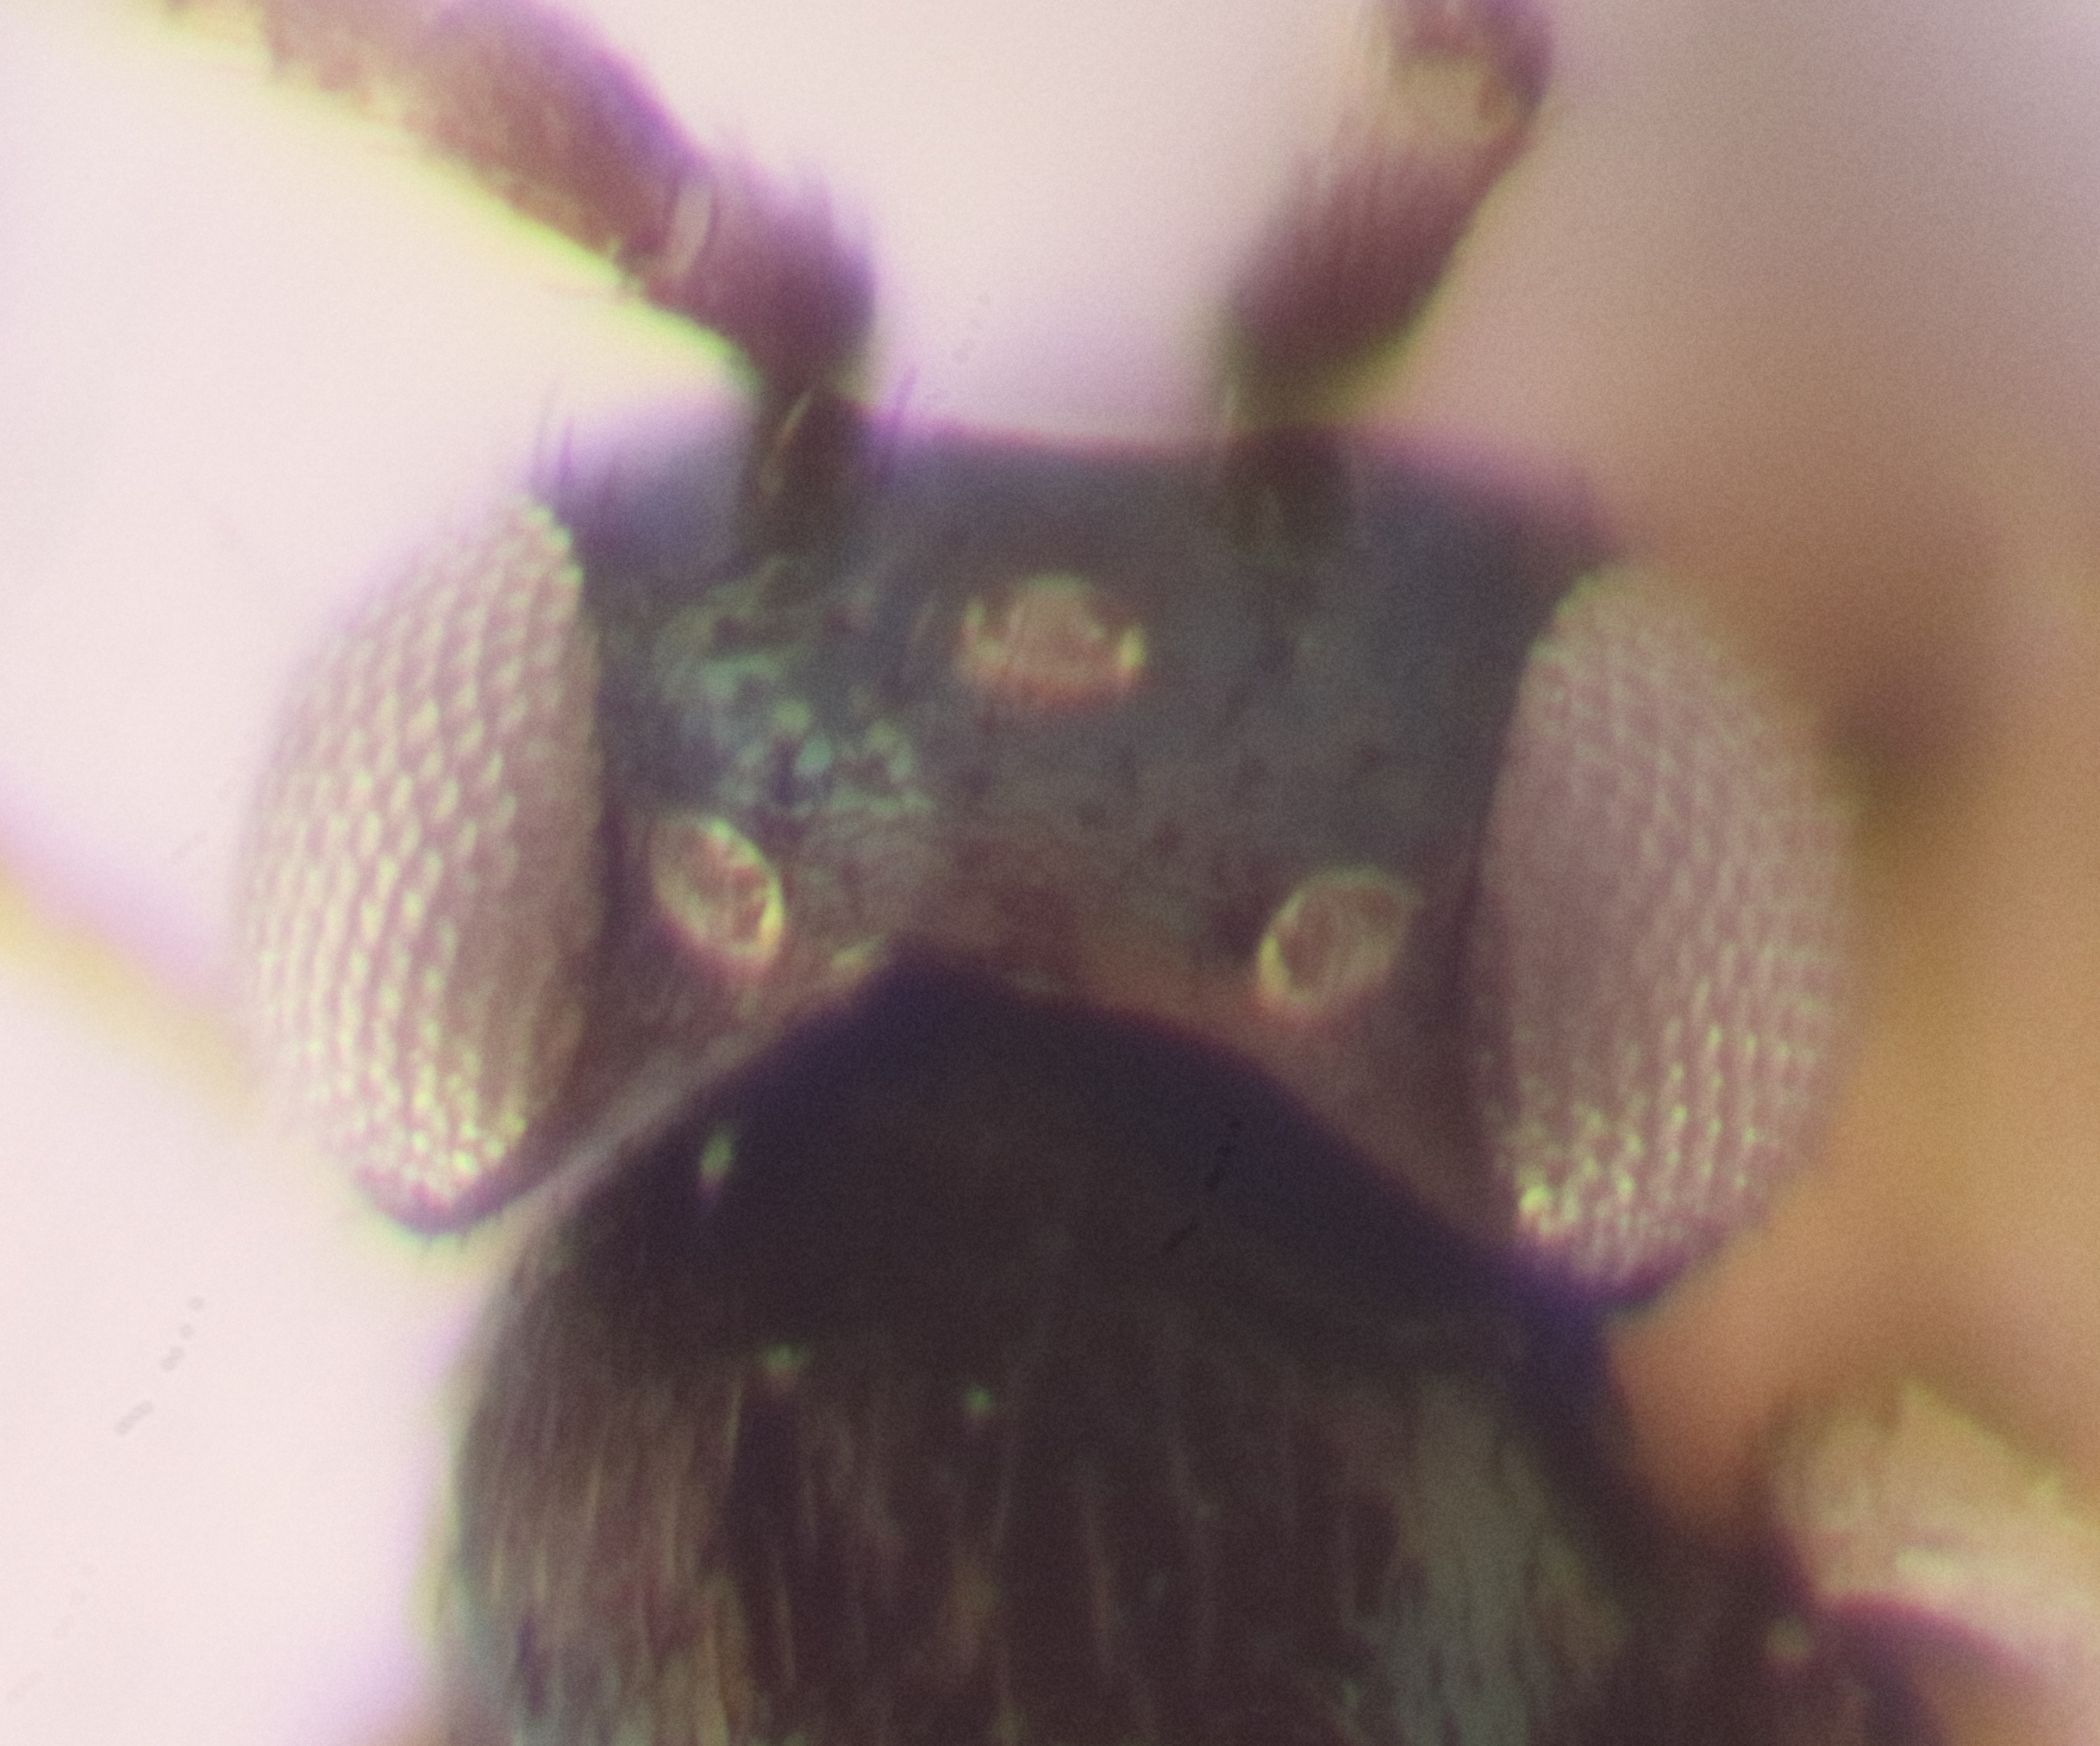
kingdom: Animalia
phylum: Arthropoda
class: Insecta
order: Hymenoptera
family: Encyrtidae
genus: Copidosoma
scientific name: Copidosoma thebe
